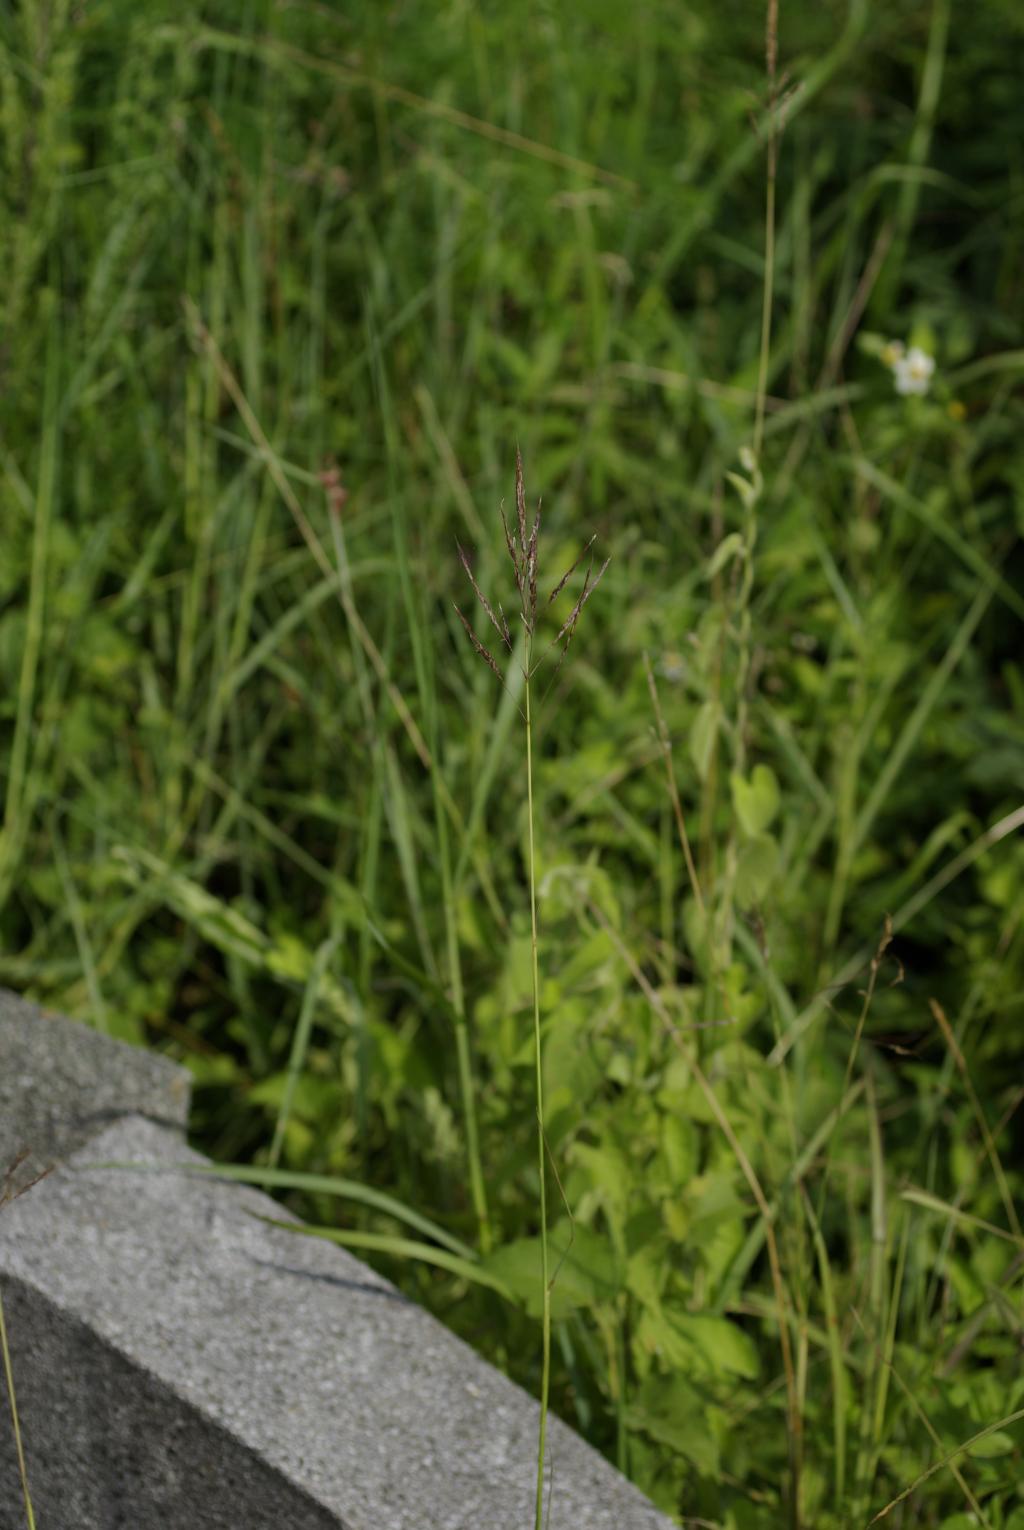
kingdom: Plantae
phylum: Tracheophyta
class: Liliopsida
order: Poales
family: Poaceae
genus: Bothriochloa
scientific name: Bothriochloa bladhii
